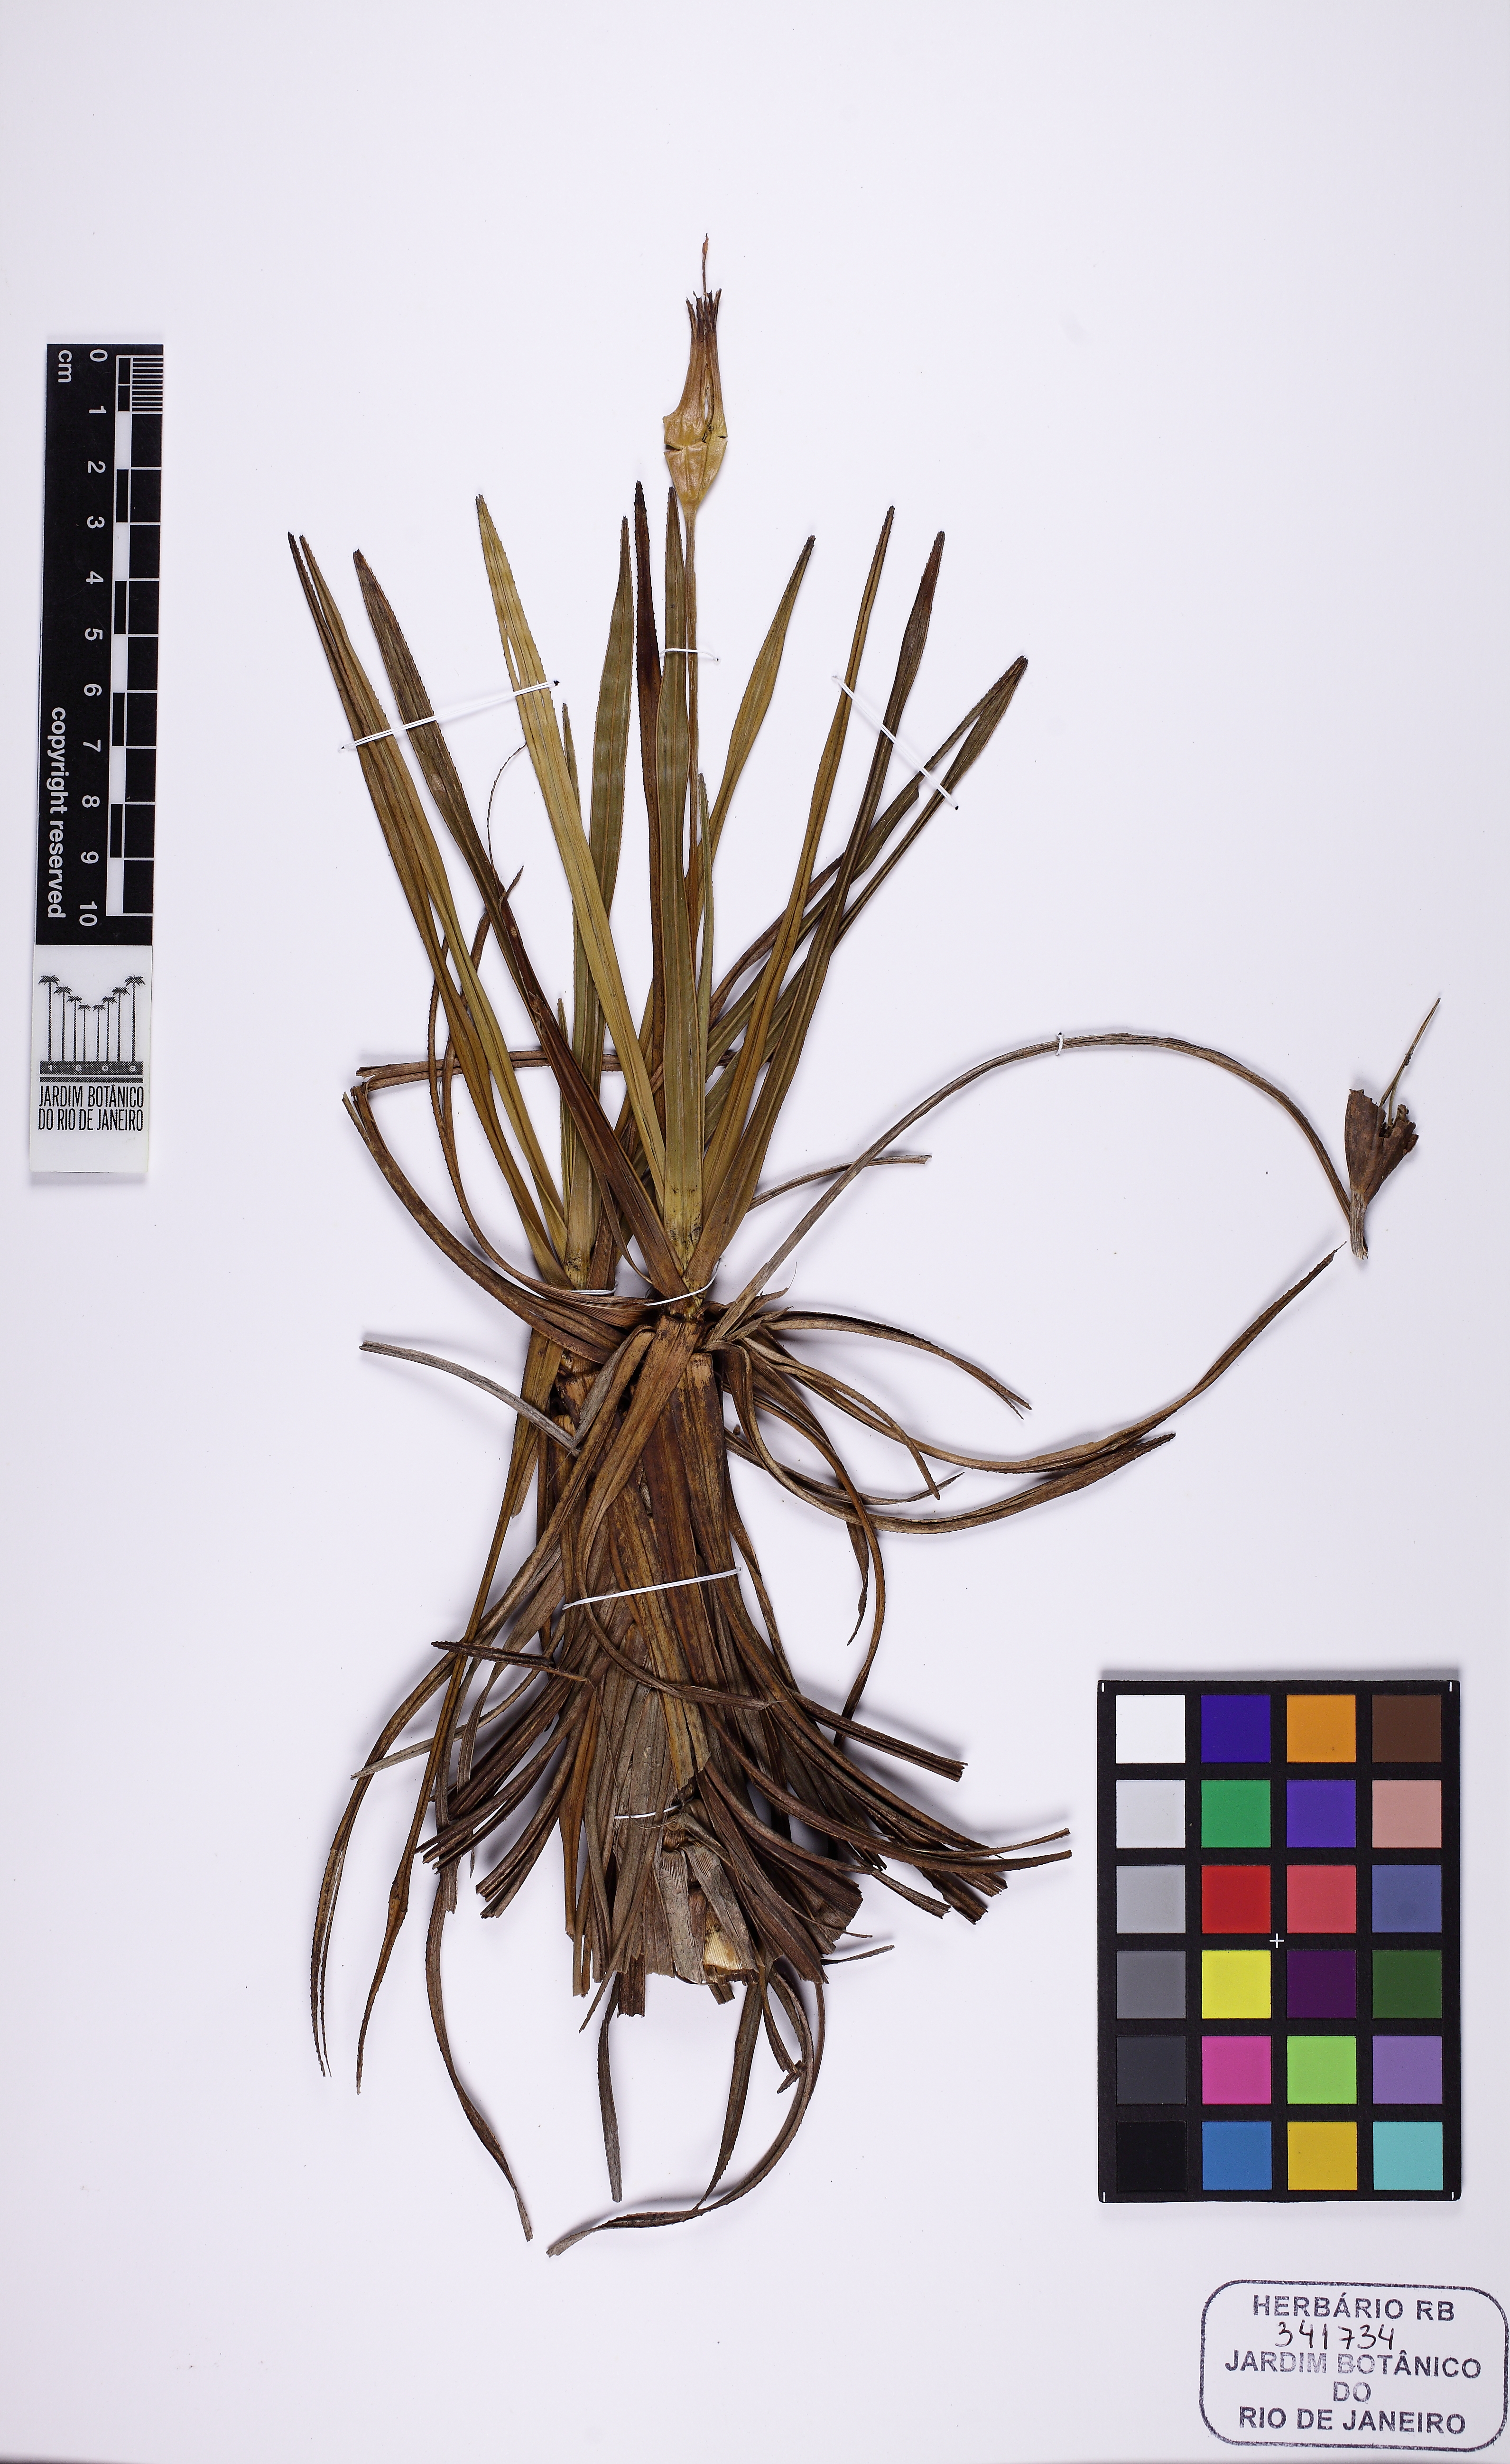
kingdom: Plantae
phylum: Tracheophyta
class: Liliopsida
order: Pandanales
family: Velloziaceae
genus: Vellozia
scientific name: Vellozia punctulata
